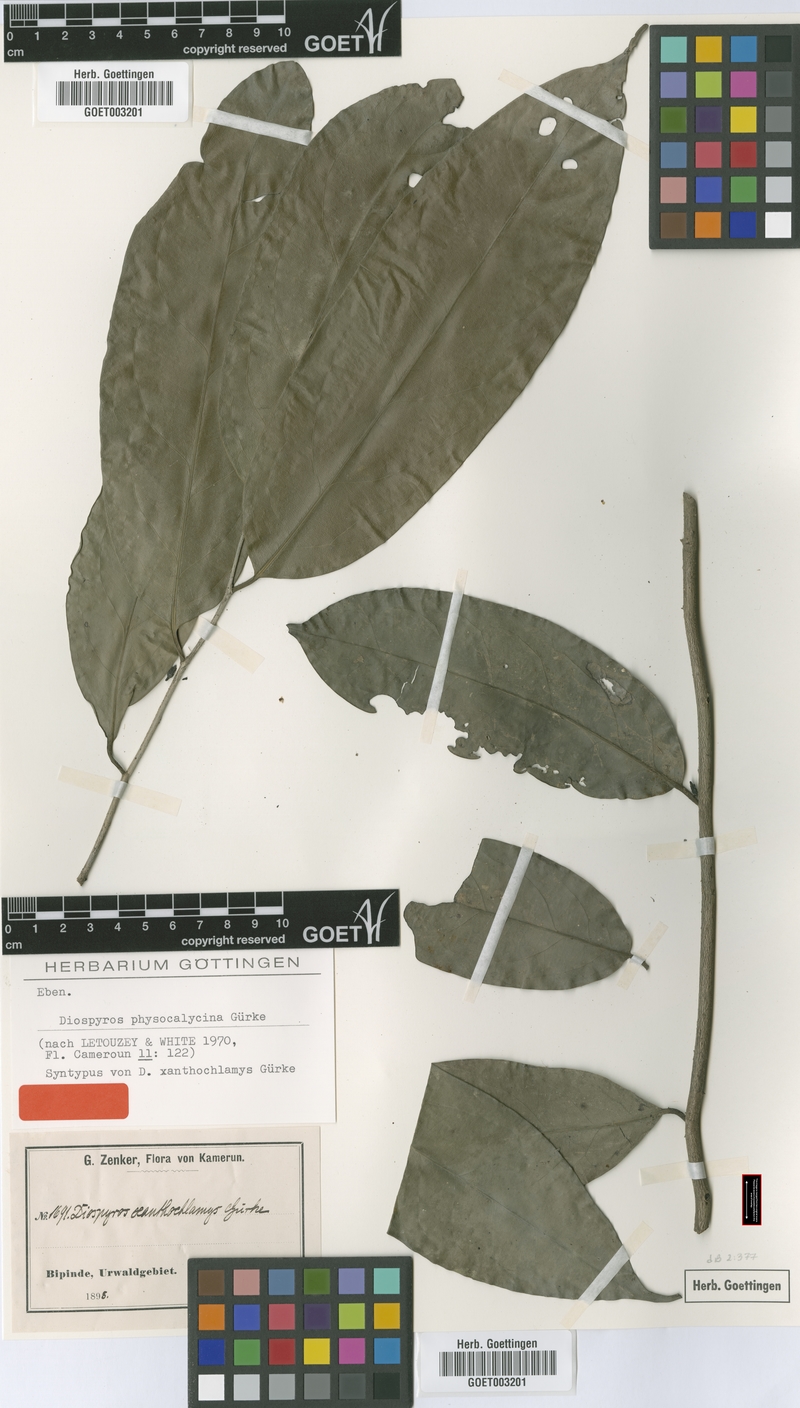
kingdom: Plantae
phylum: Tracheophyta
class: Magnoliopsida
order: Ericales
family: Ebenaceae
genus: Diospyros
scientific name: Diospyros physocalycina
